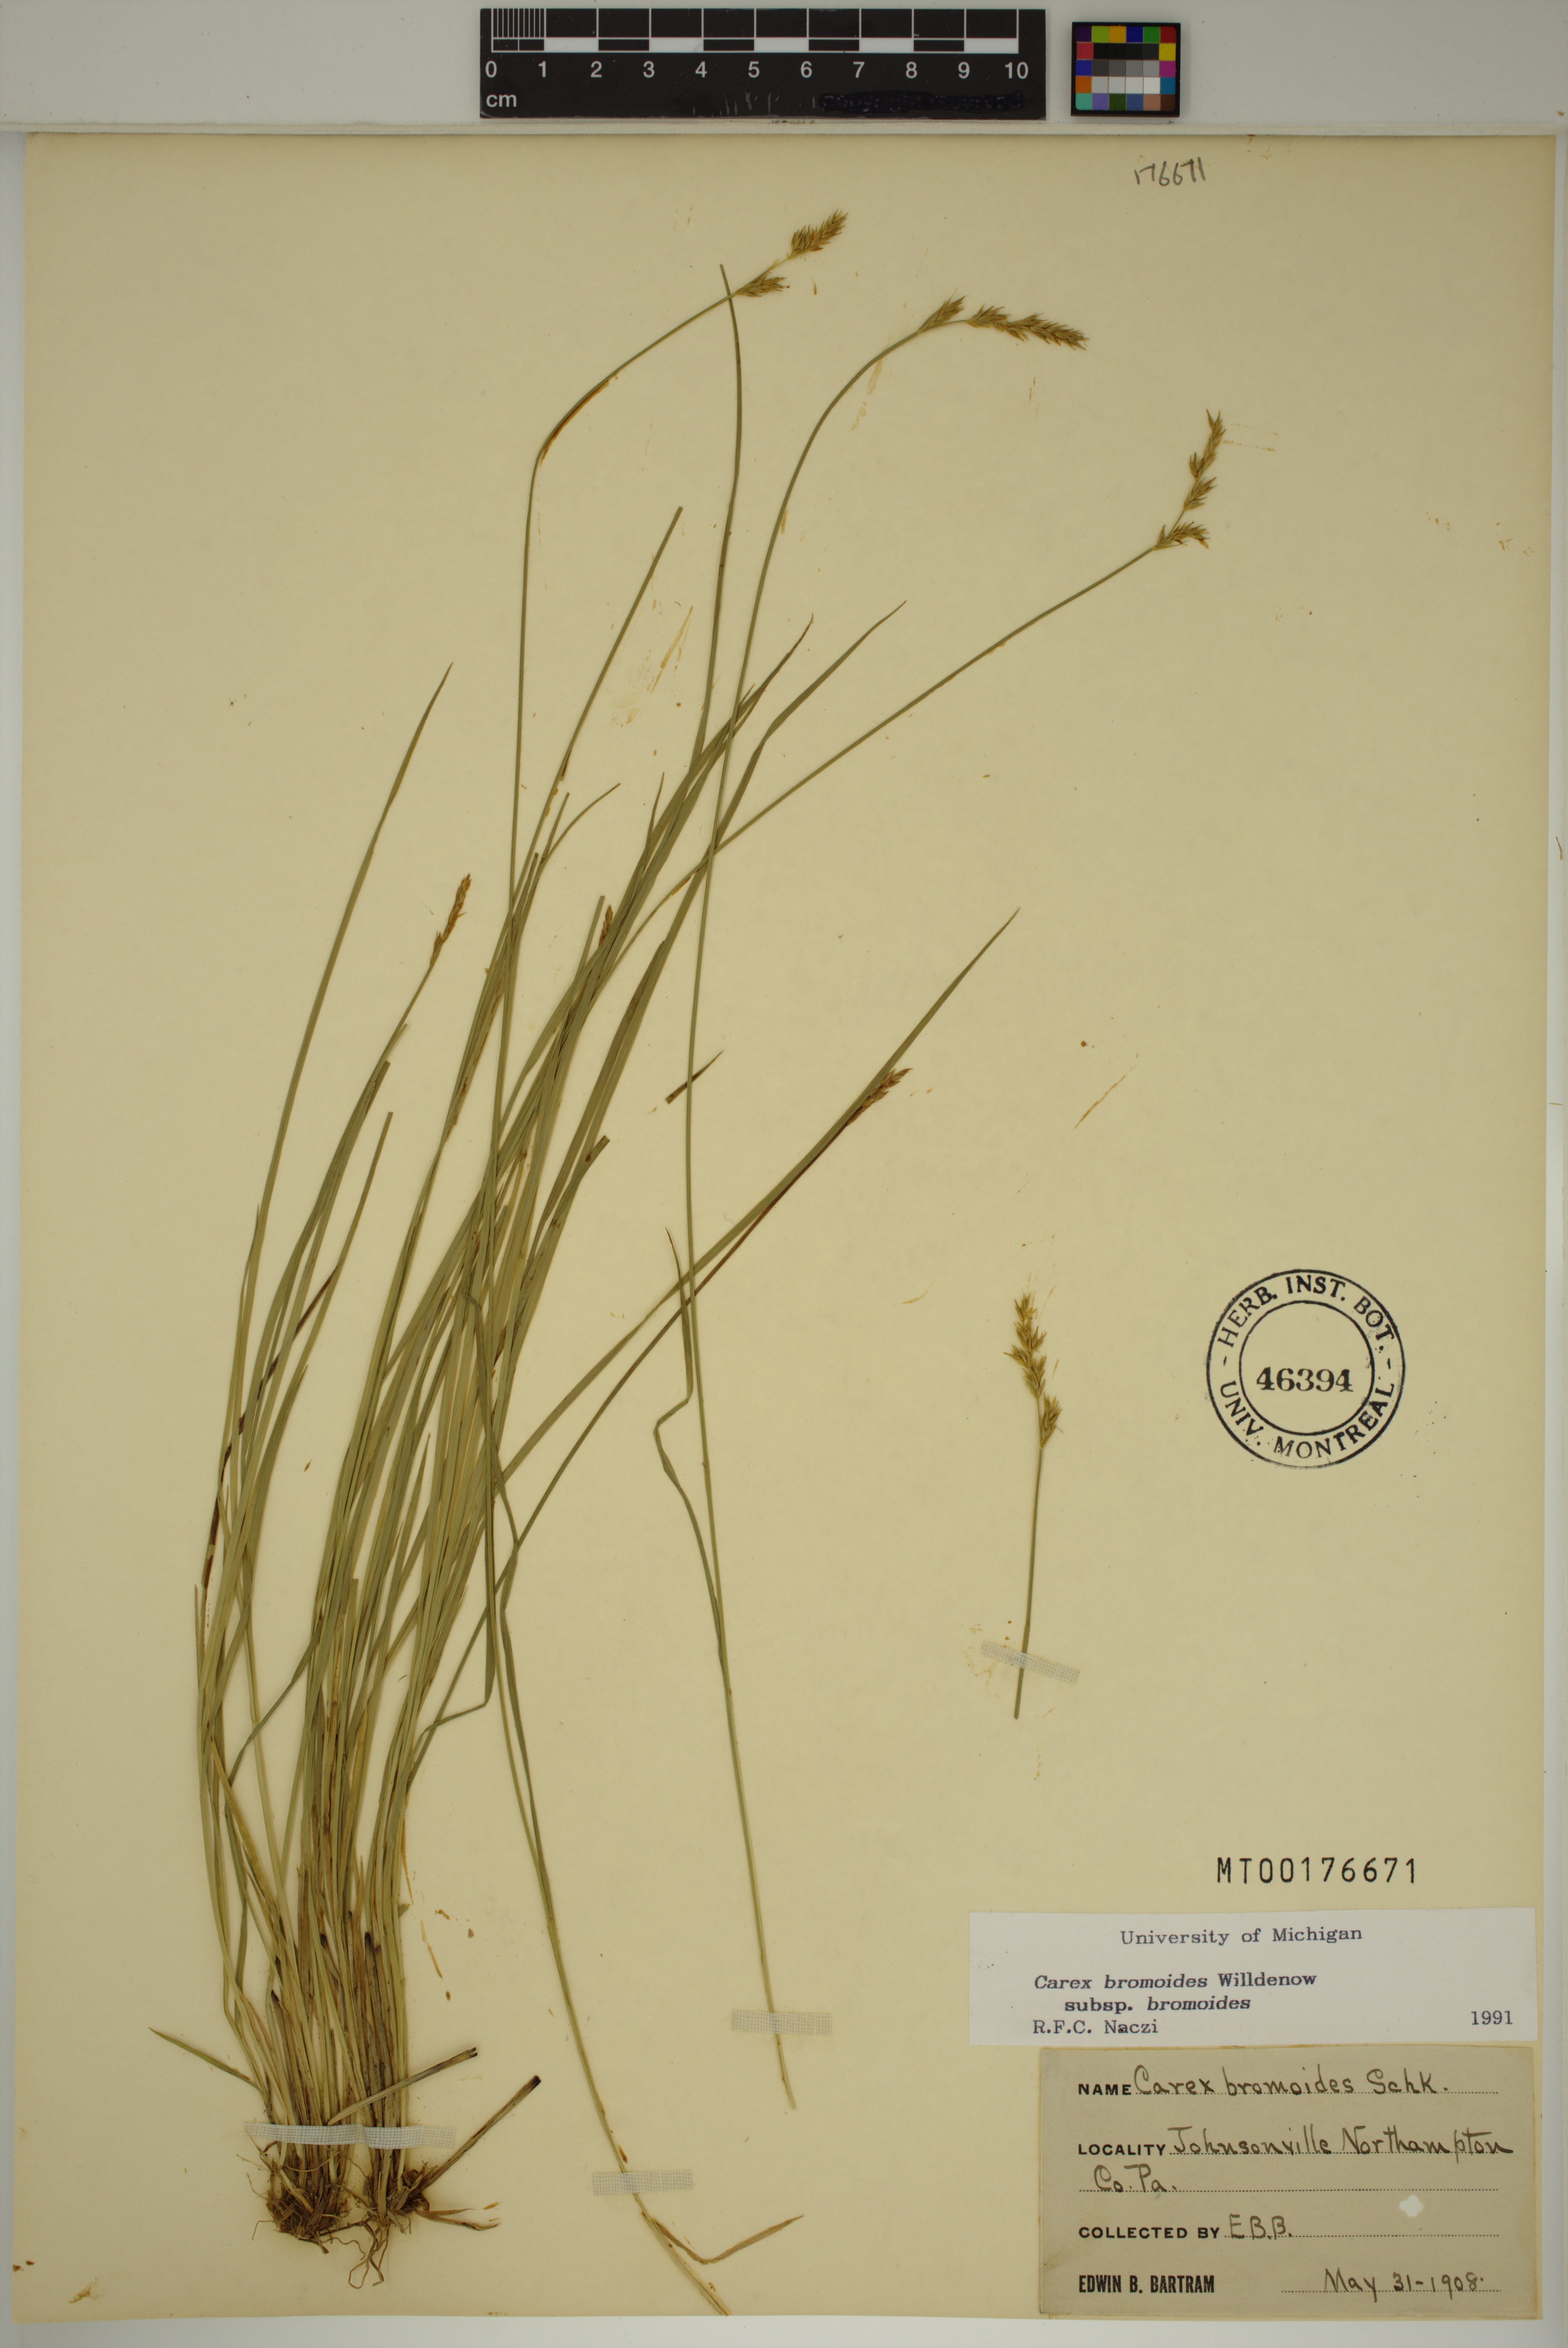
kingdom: Plantae
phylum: Tracheophyta
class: Liliopsida
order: Poales
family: Cyperaceae
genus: Carex
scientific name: Carex bromoides
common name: Brome hummock sedge
